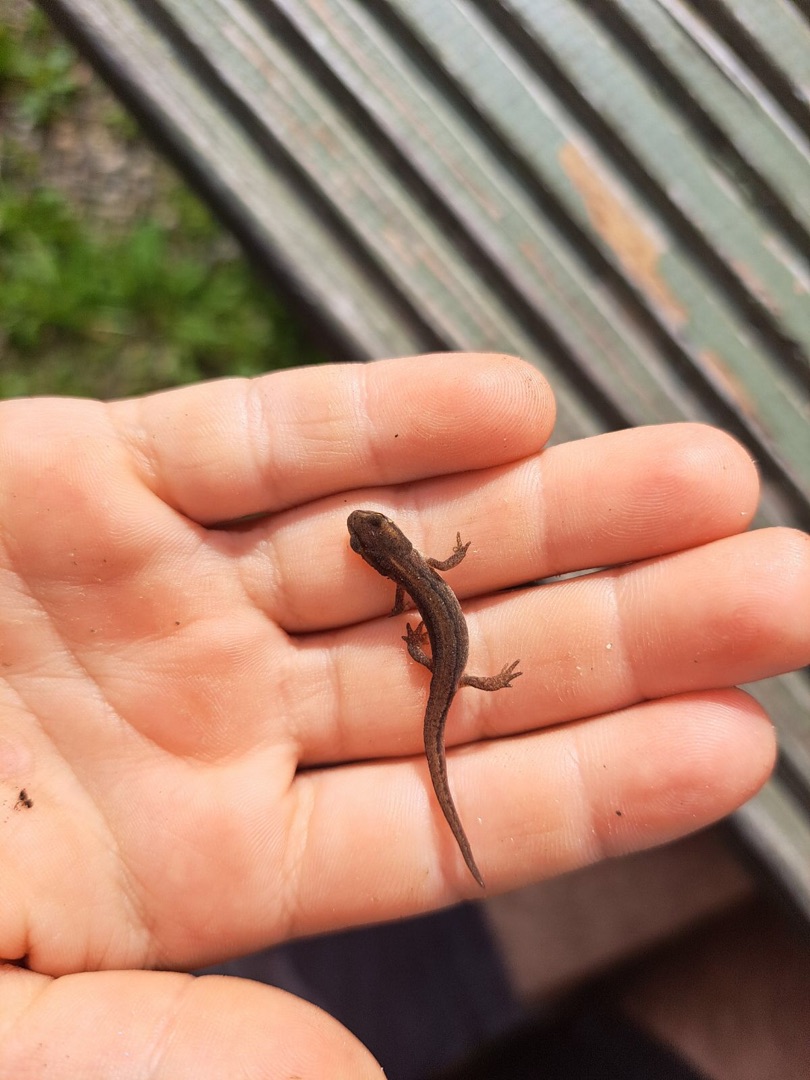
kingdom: Animalia
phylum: Chordata
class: Amphibia
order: Caudata
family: Salamandridae
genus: Lissotriton
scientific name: Lissotriton vulgaris
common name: Lille vandsalamander
